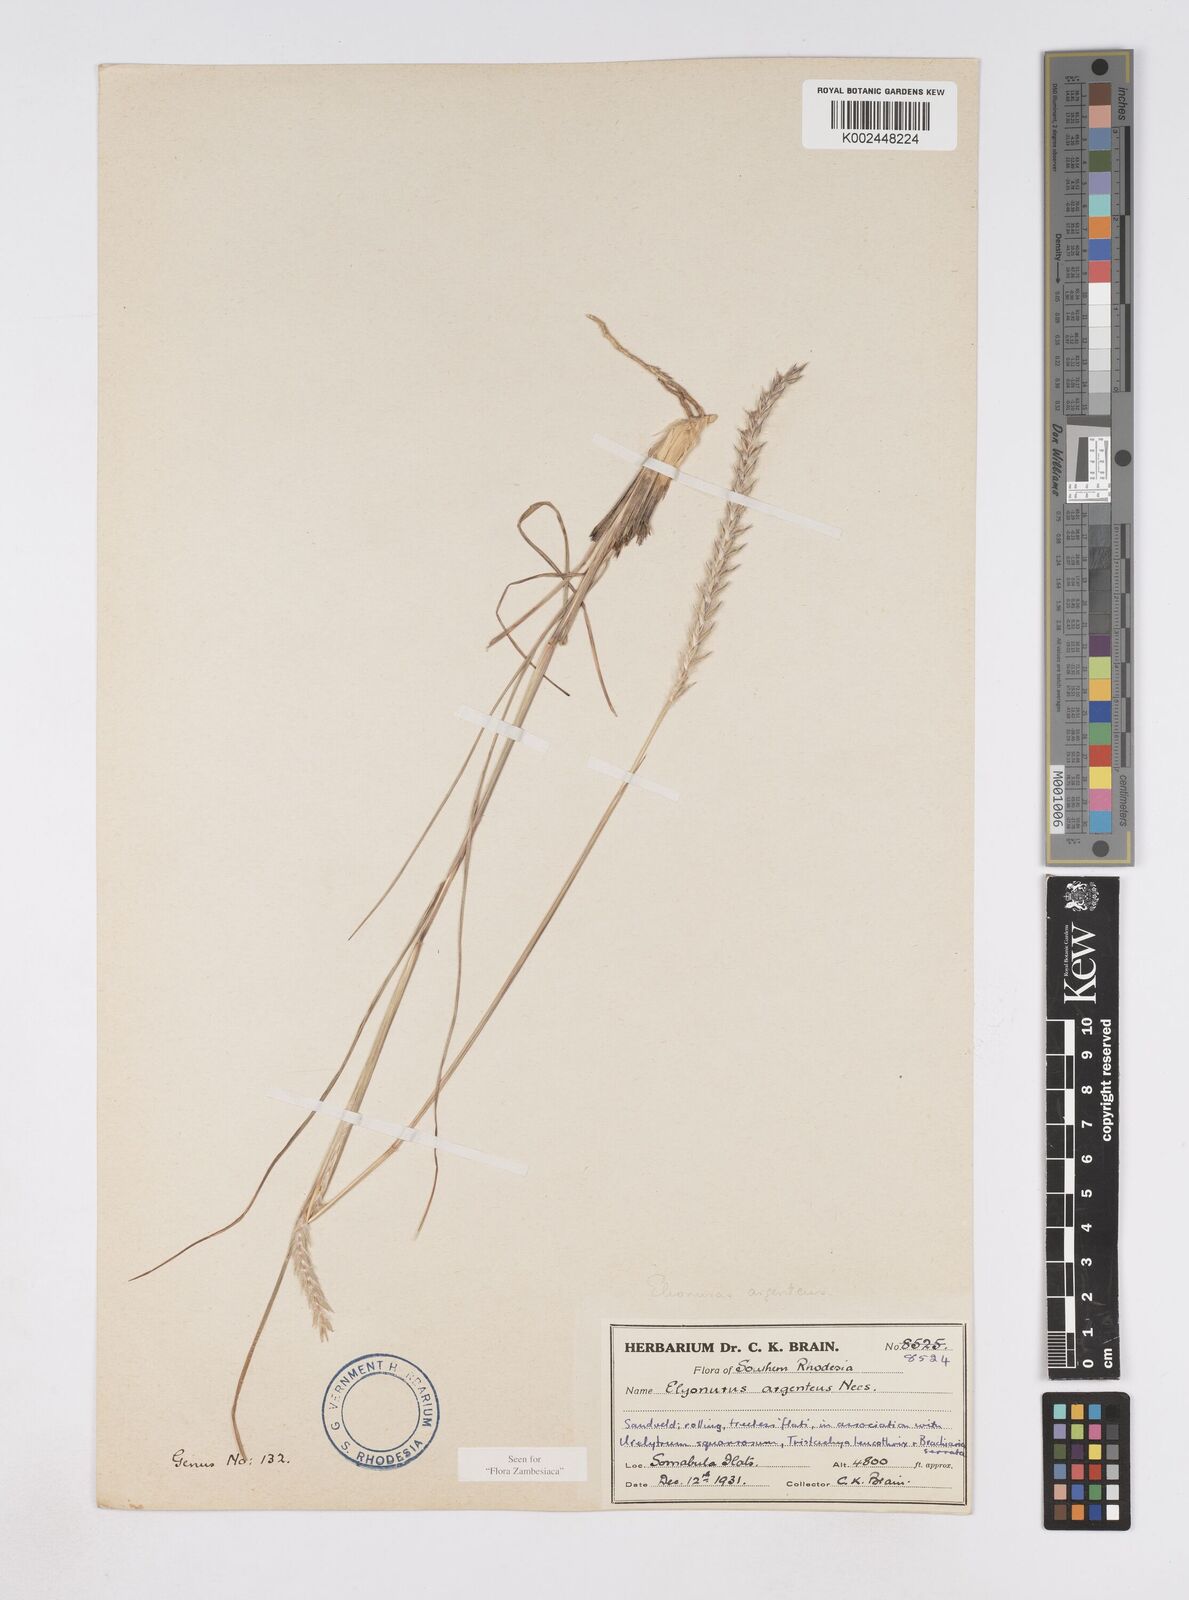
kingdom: Plantae
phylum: Tracheophyta
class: Liliopsida
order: Poales
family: Poaceae
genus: Elionurus
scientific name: Elionurus muticus
